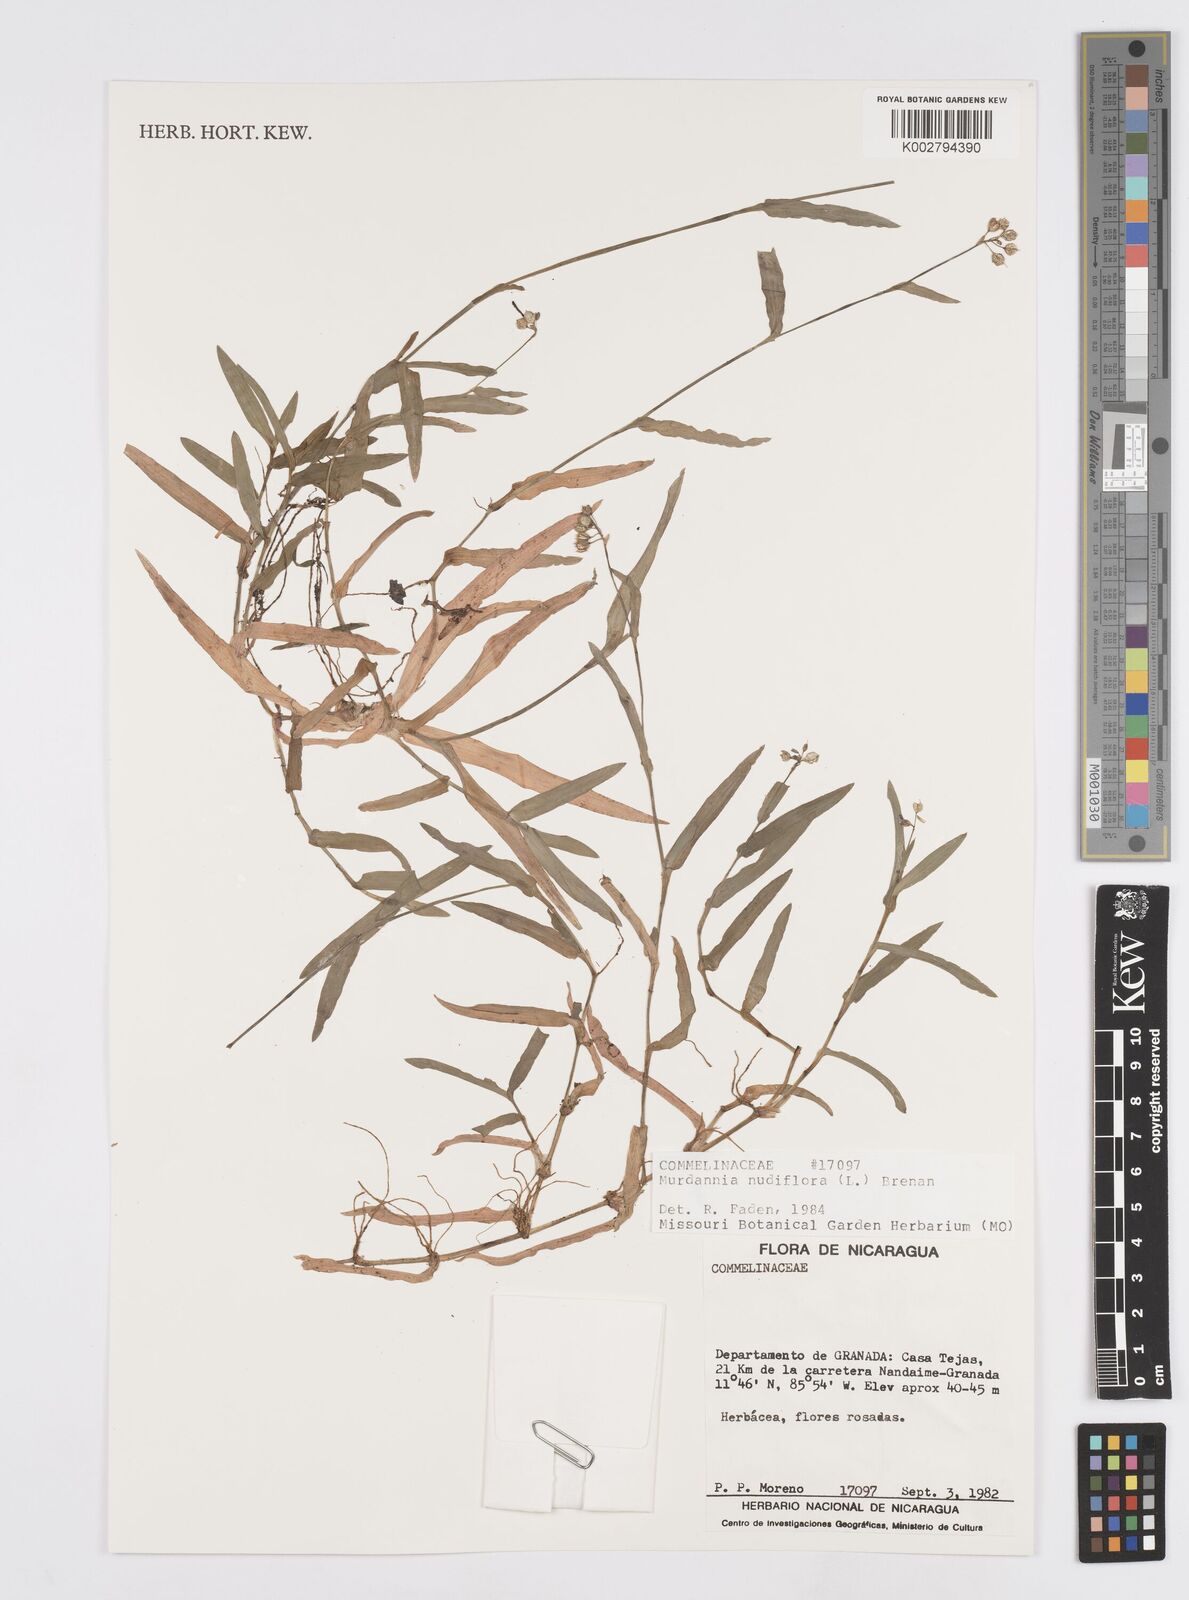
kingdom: Plantae
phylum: Tracheophyta
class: Liliopsida
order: Commelinales
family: Commelinaceae
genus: Murdannia
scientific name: Murdannia nudiflora
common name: Nakedstem dewflower
